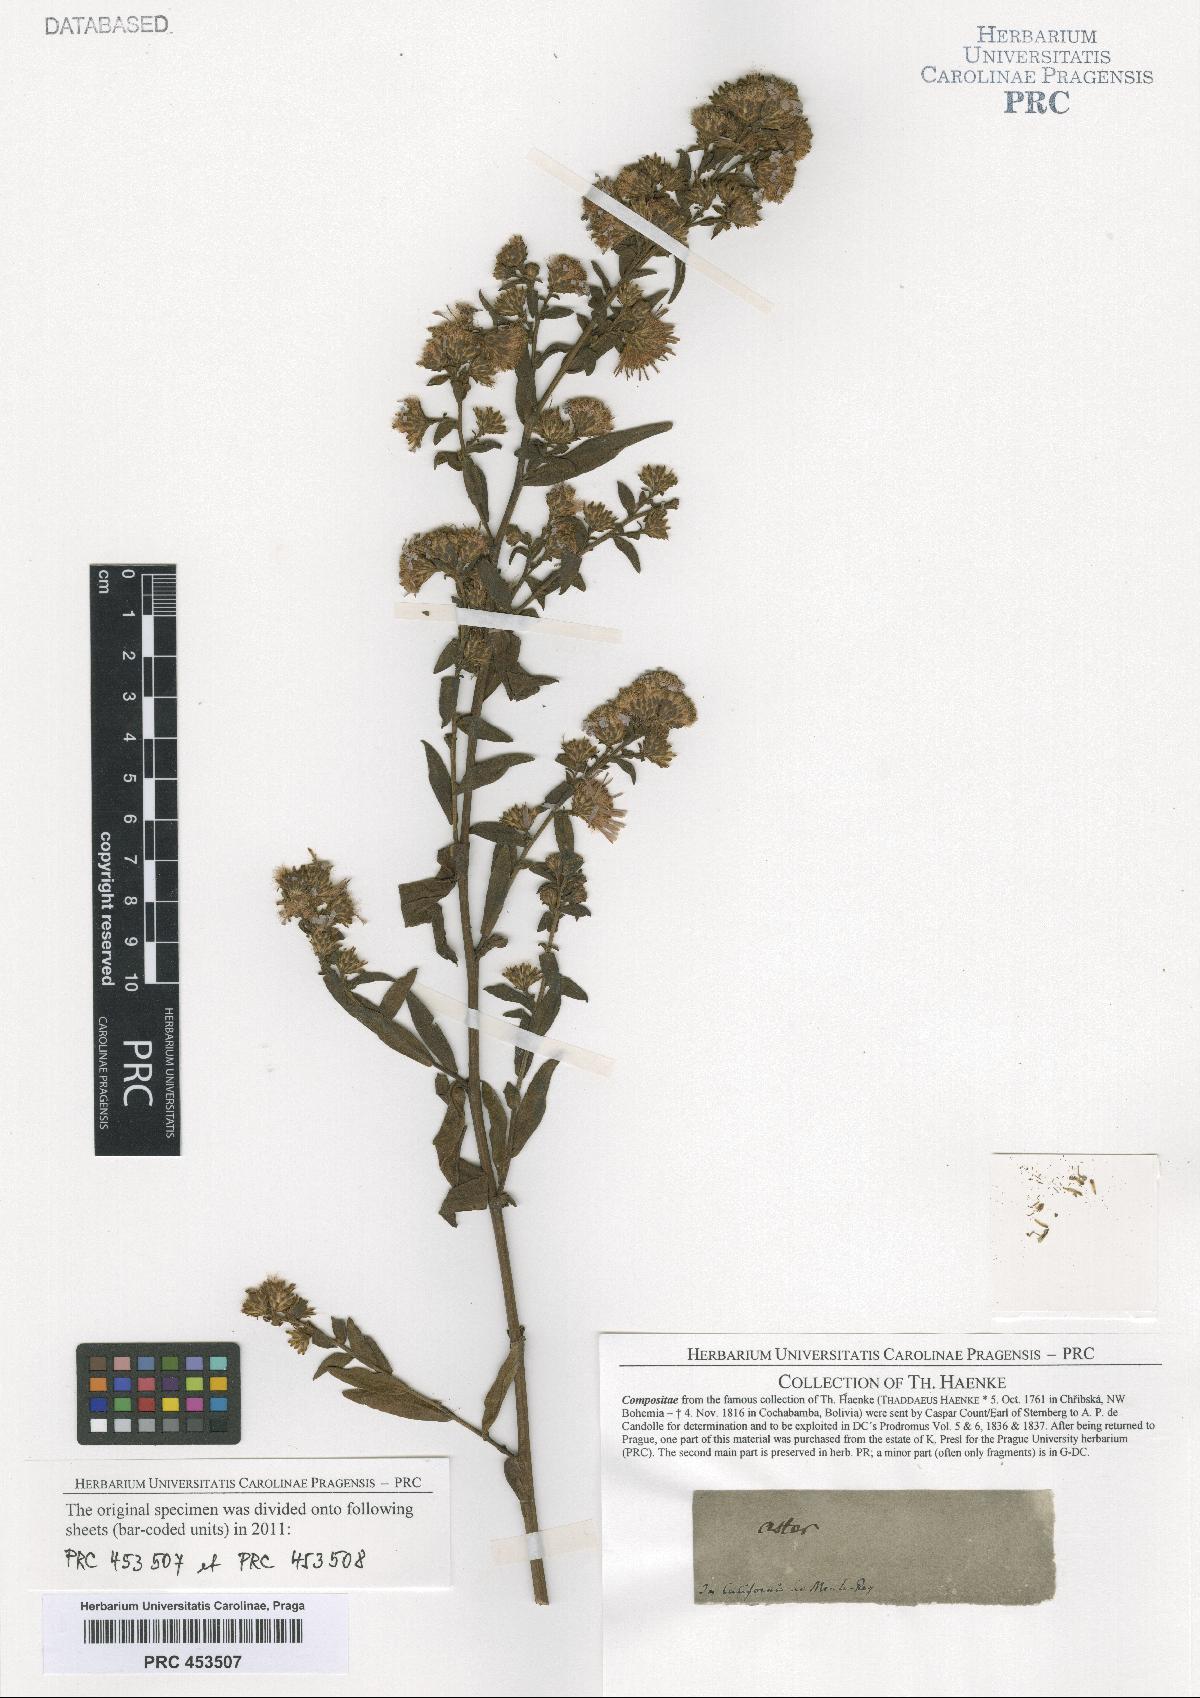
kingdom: Plantae
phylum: Tracheophyta
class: Magnoliopsida
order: Asterales
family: Asteraceae
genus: Aster
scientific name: Aster
